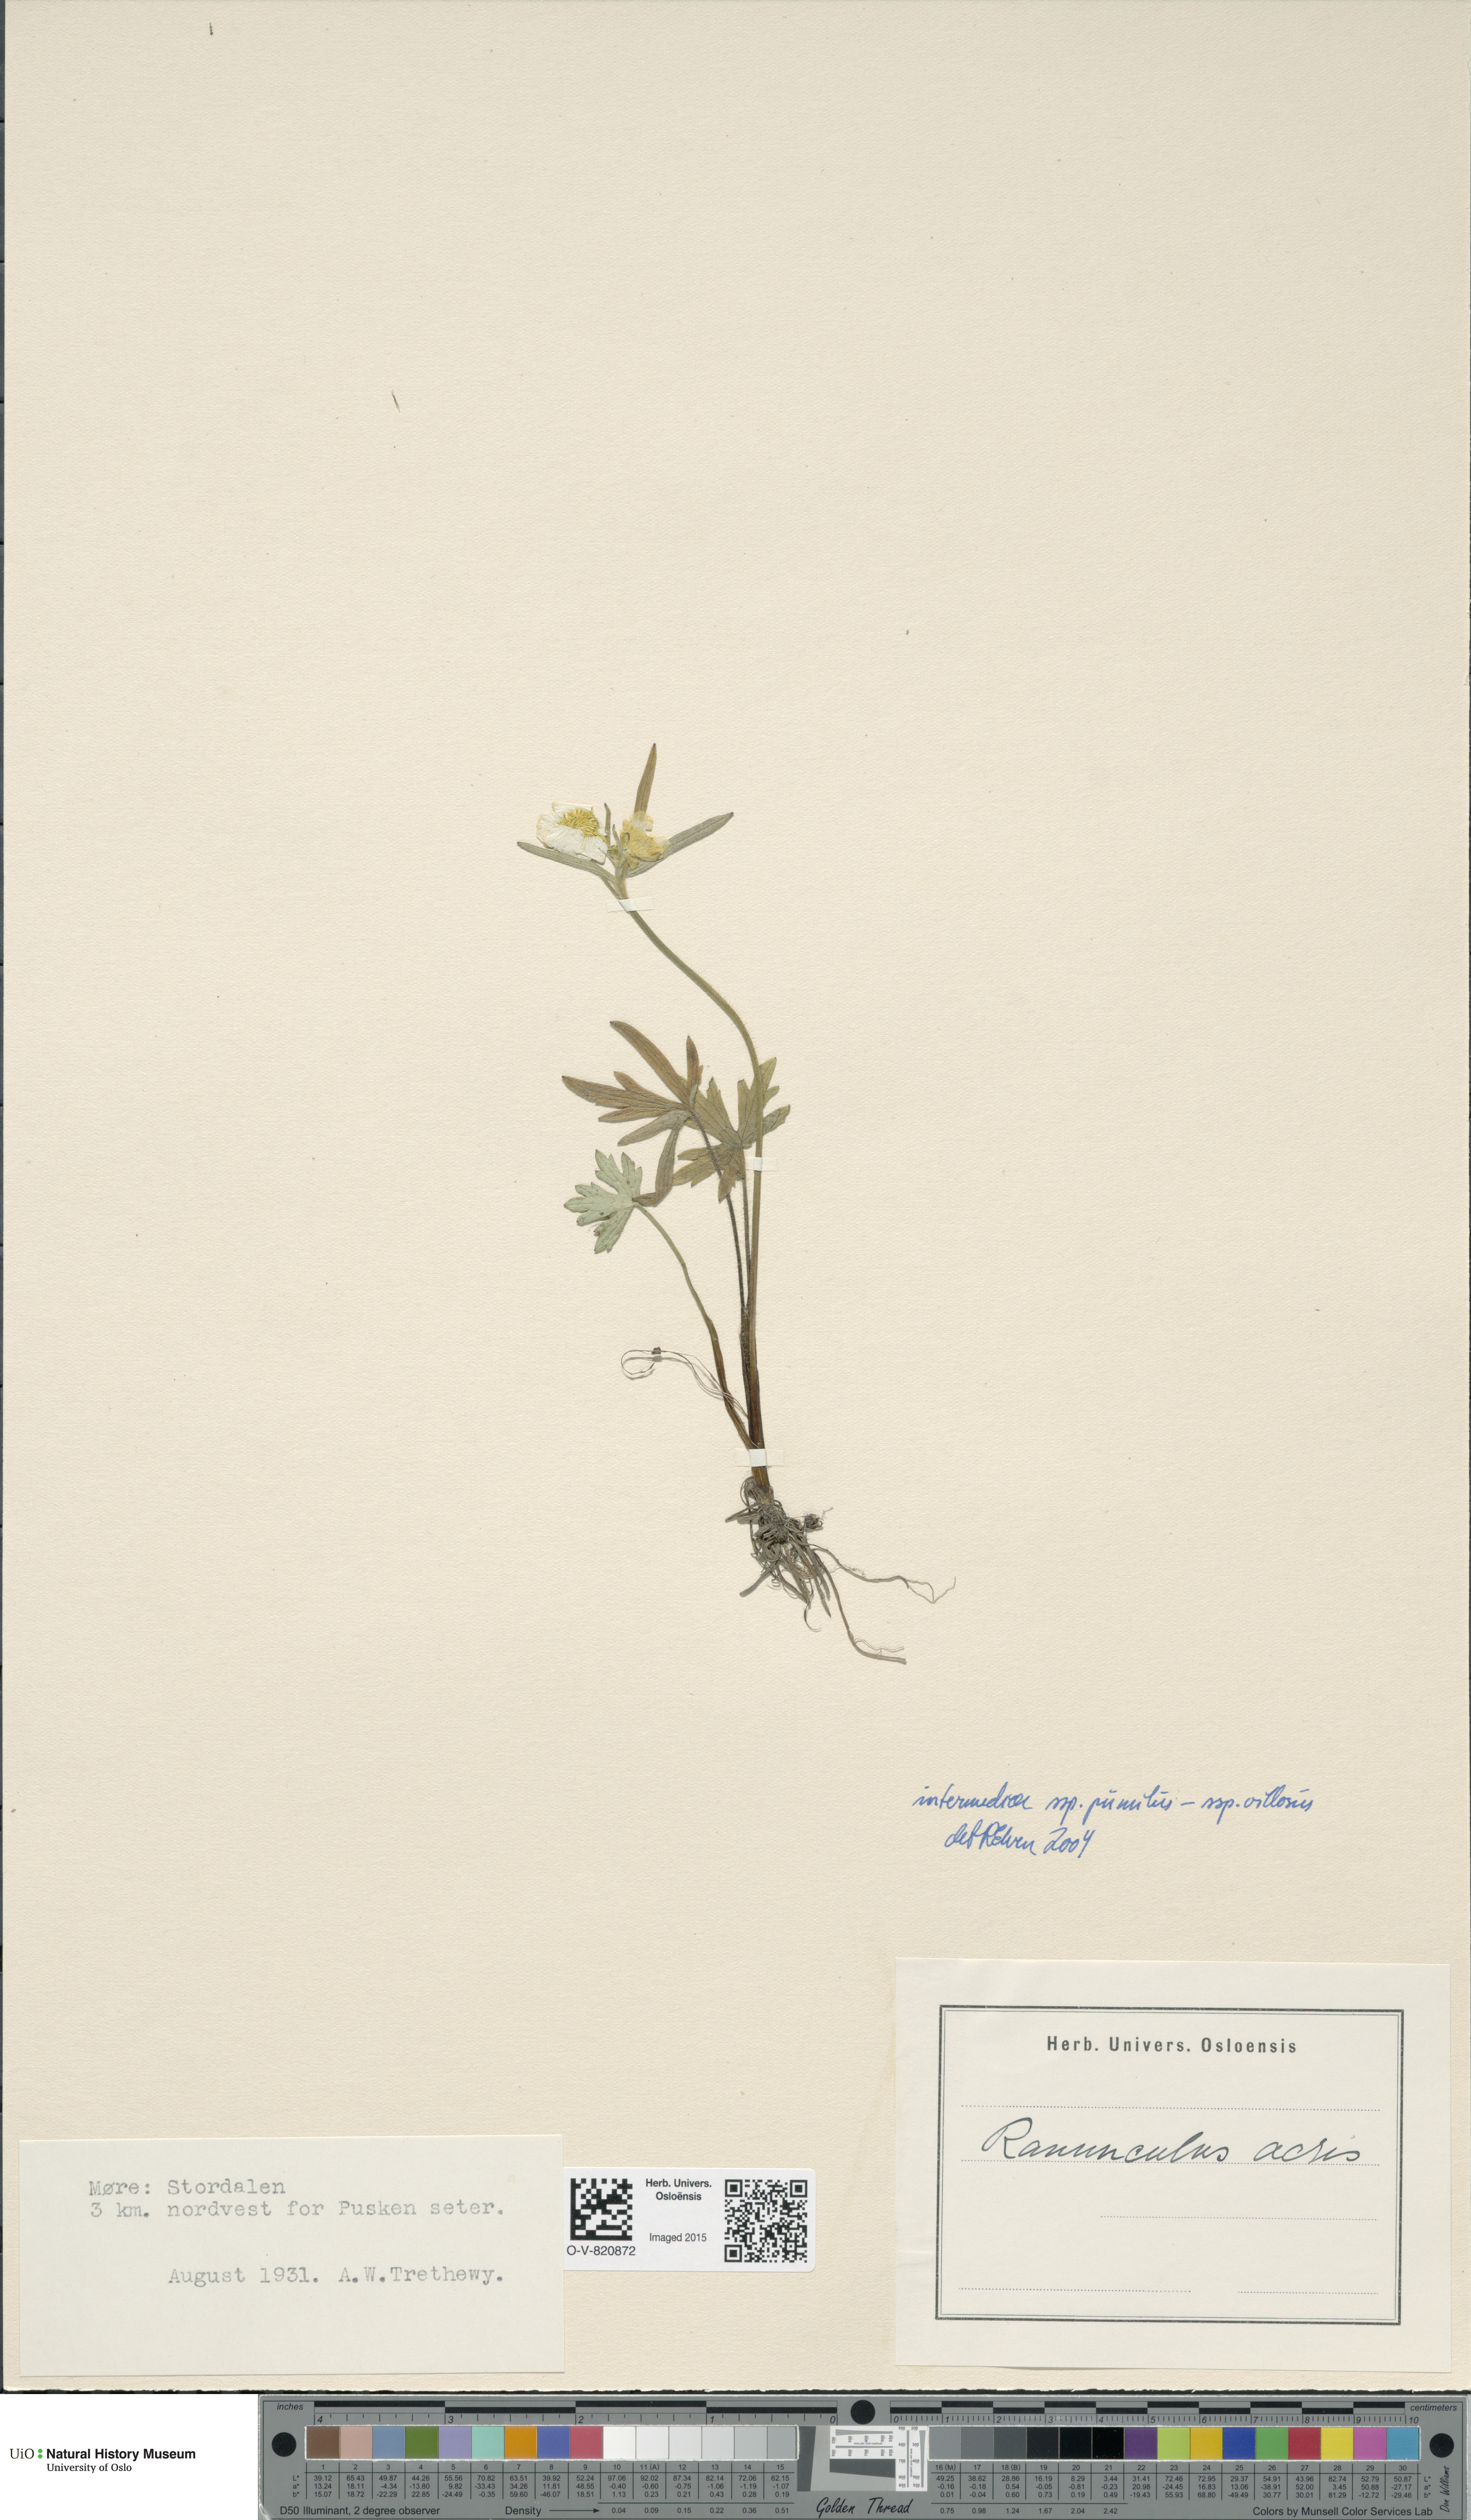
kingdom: Plantae
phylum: Tracheophyta
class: Magnoliopsida
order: Ranunculales
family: Ranunculaceae
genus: Ranunculus
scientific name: Ranunculus
